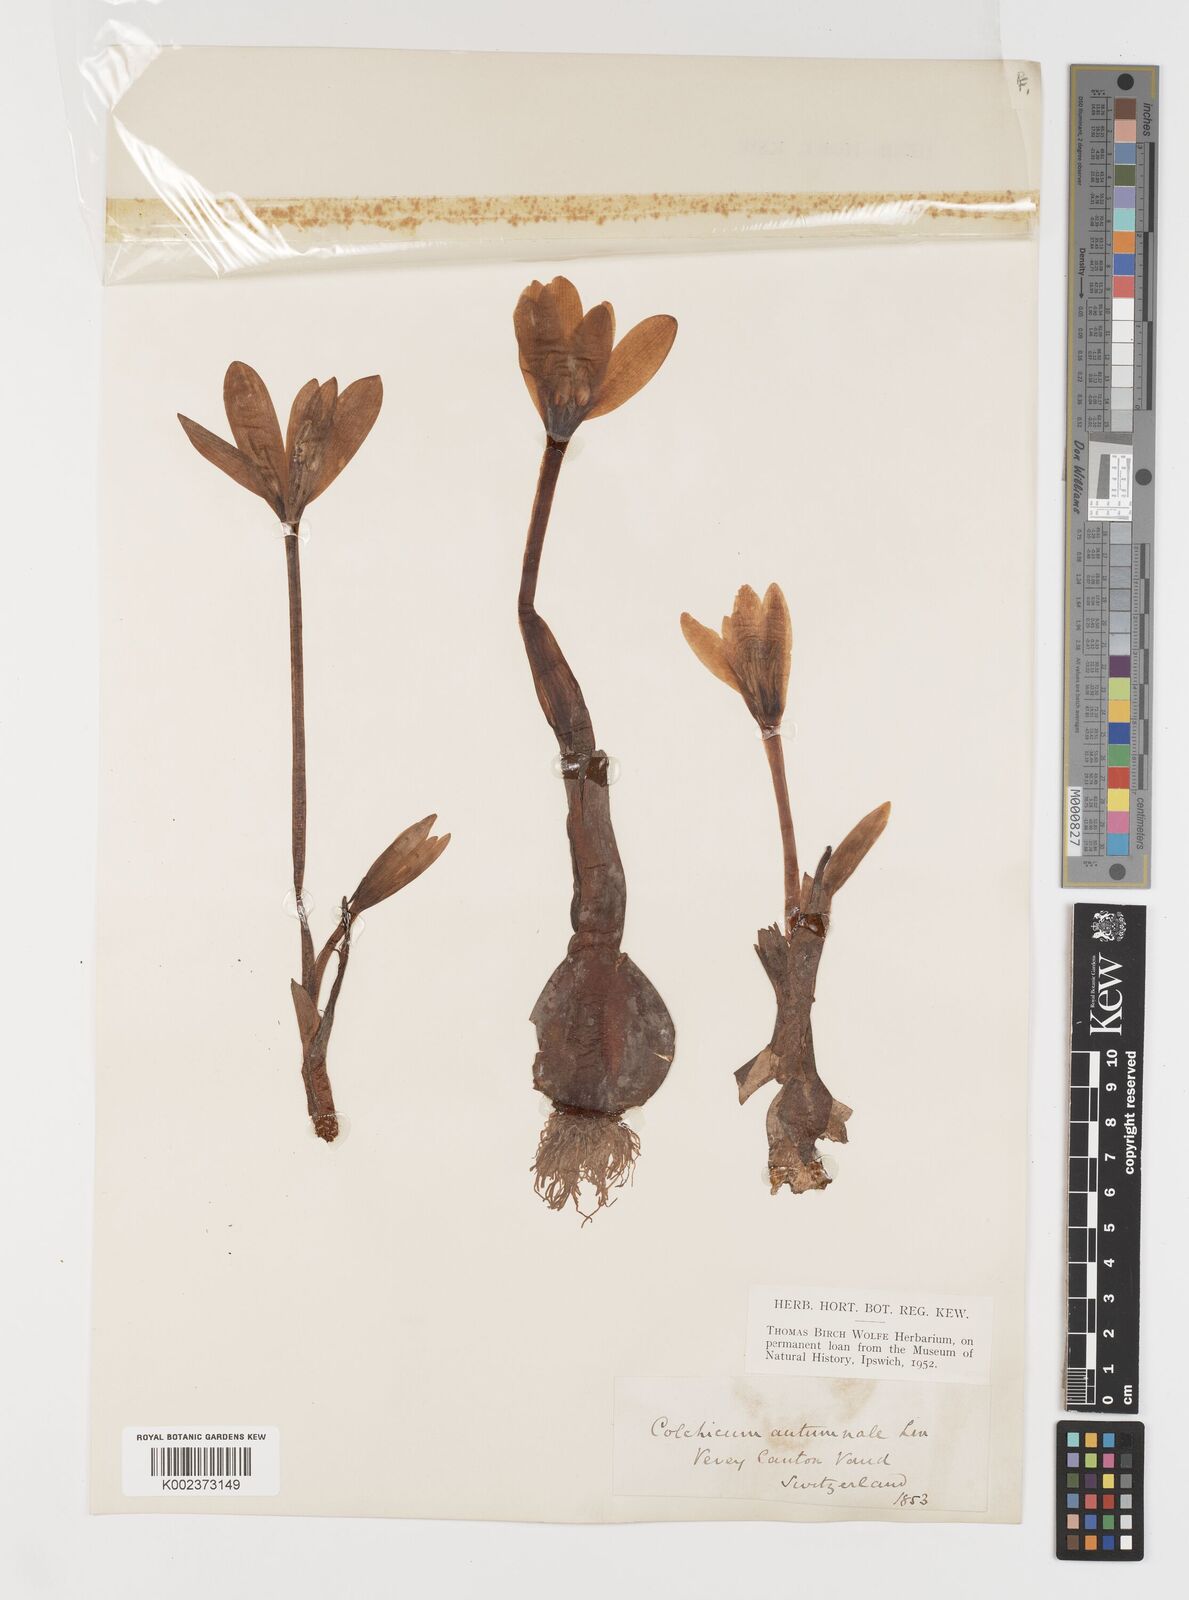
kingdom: Plantae
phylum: Tracheophyta
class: Liliopsida
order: Liliales
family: Colchicaceae
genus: Colchicum
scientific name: Colchicum autumnale
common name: Autumn crocus
